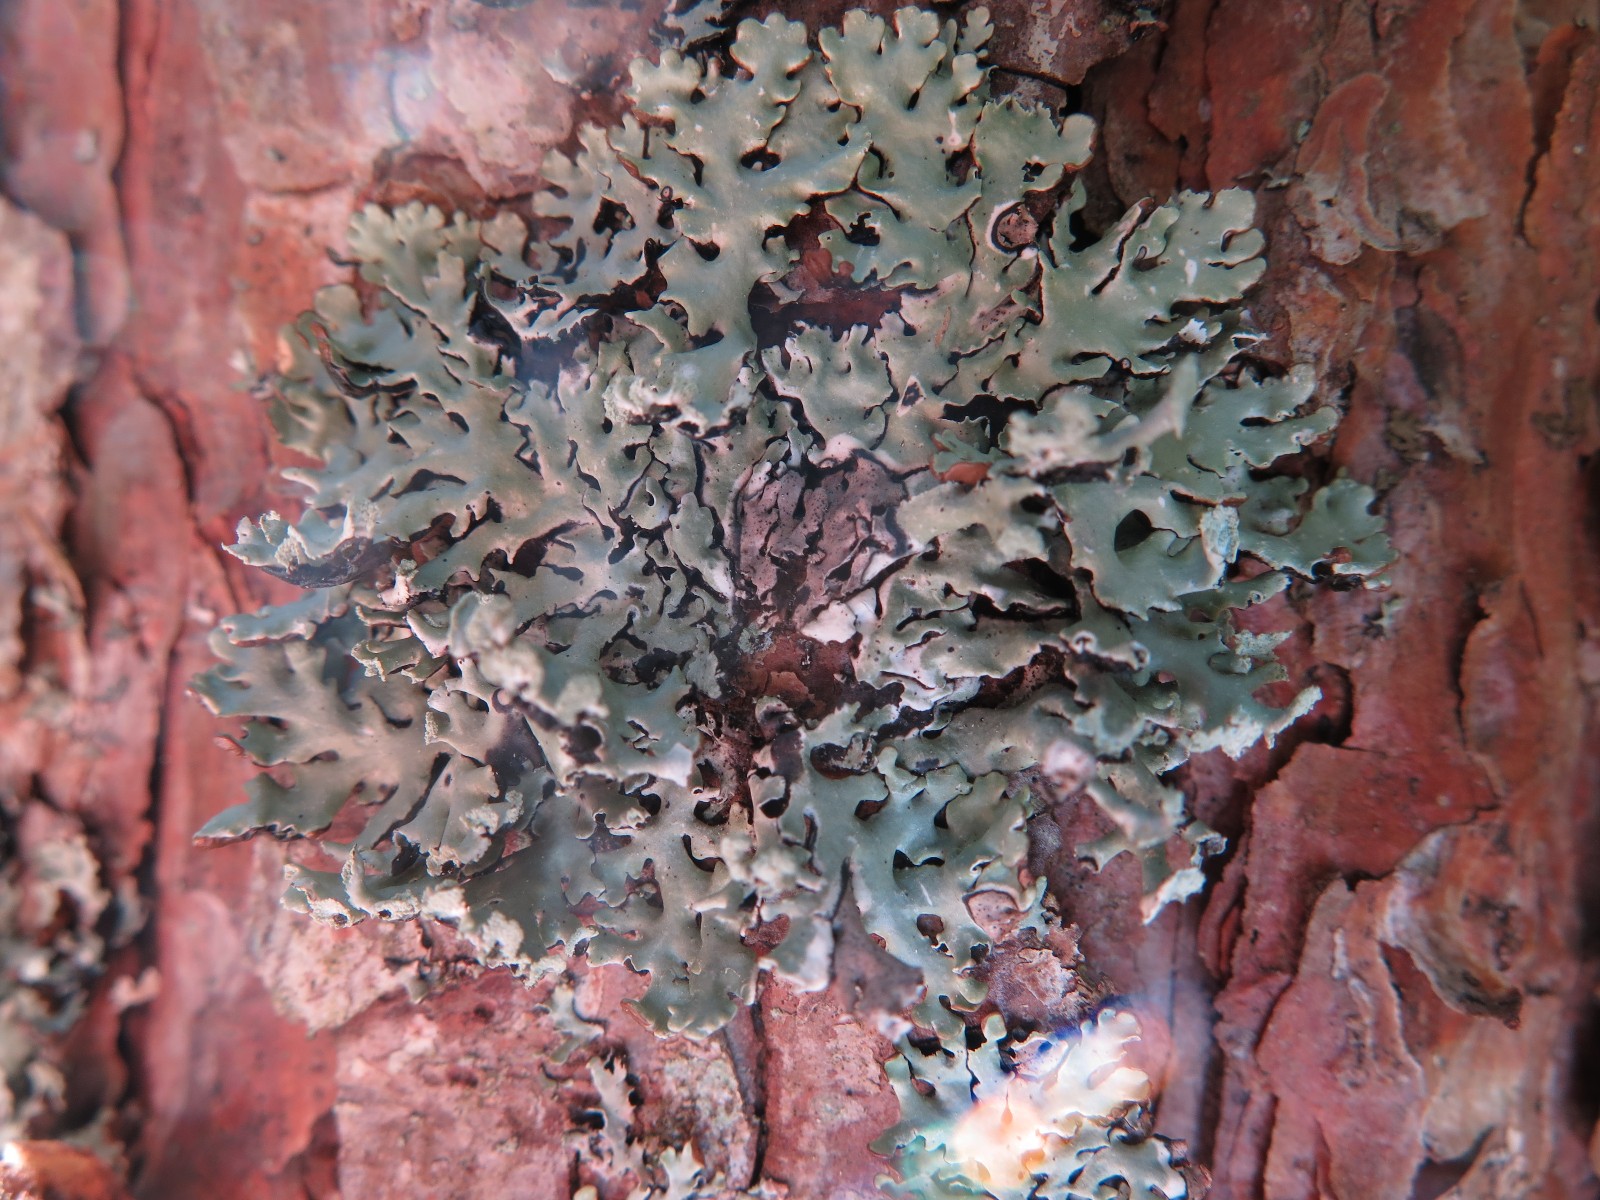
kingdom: Fungi
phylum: Ascomycota
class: Lecanoromycetes
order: Lecanorales
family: Parmeliaceae
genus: Hypogymnia
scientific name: Hypogymnia physodes
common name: almindelig kvistlav
